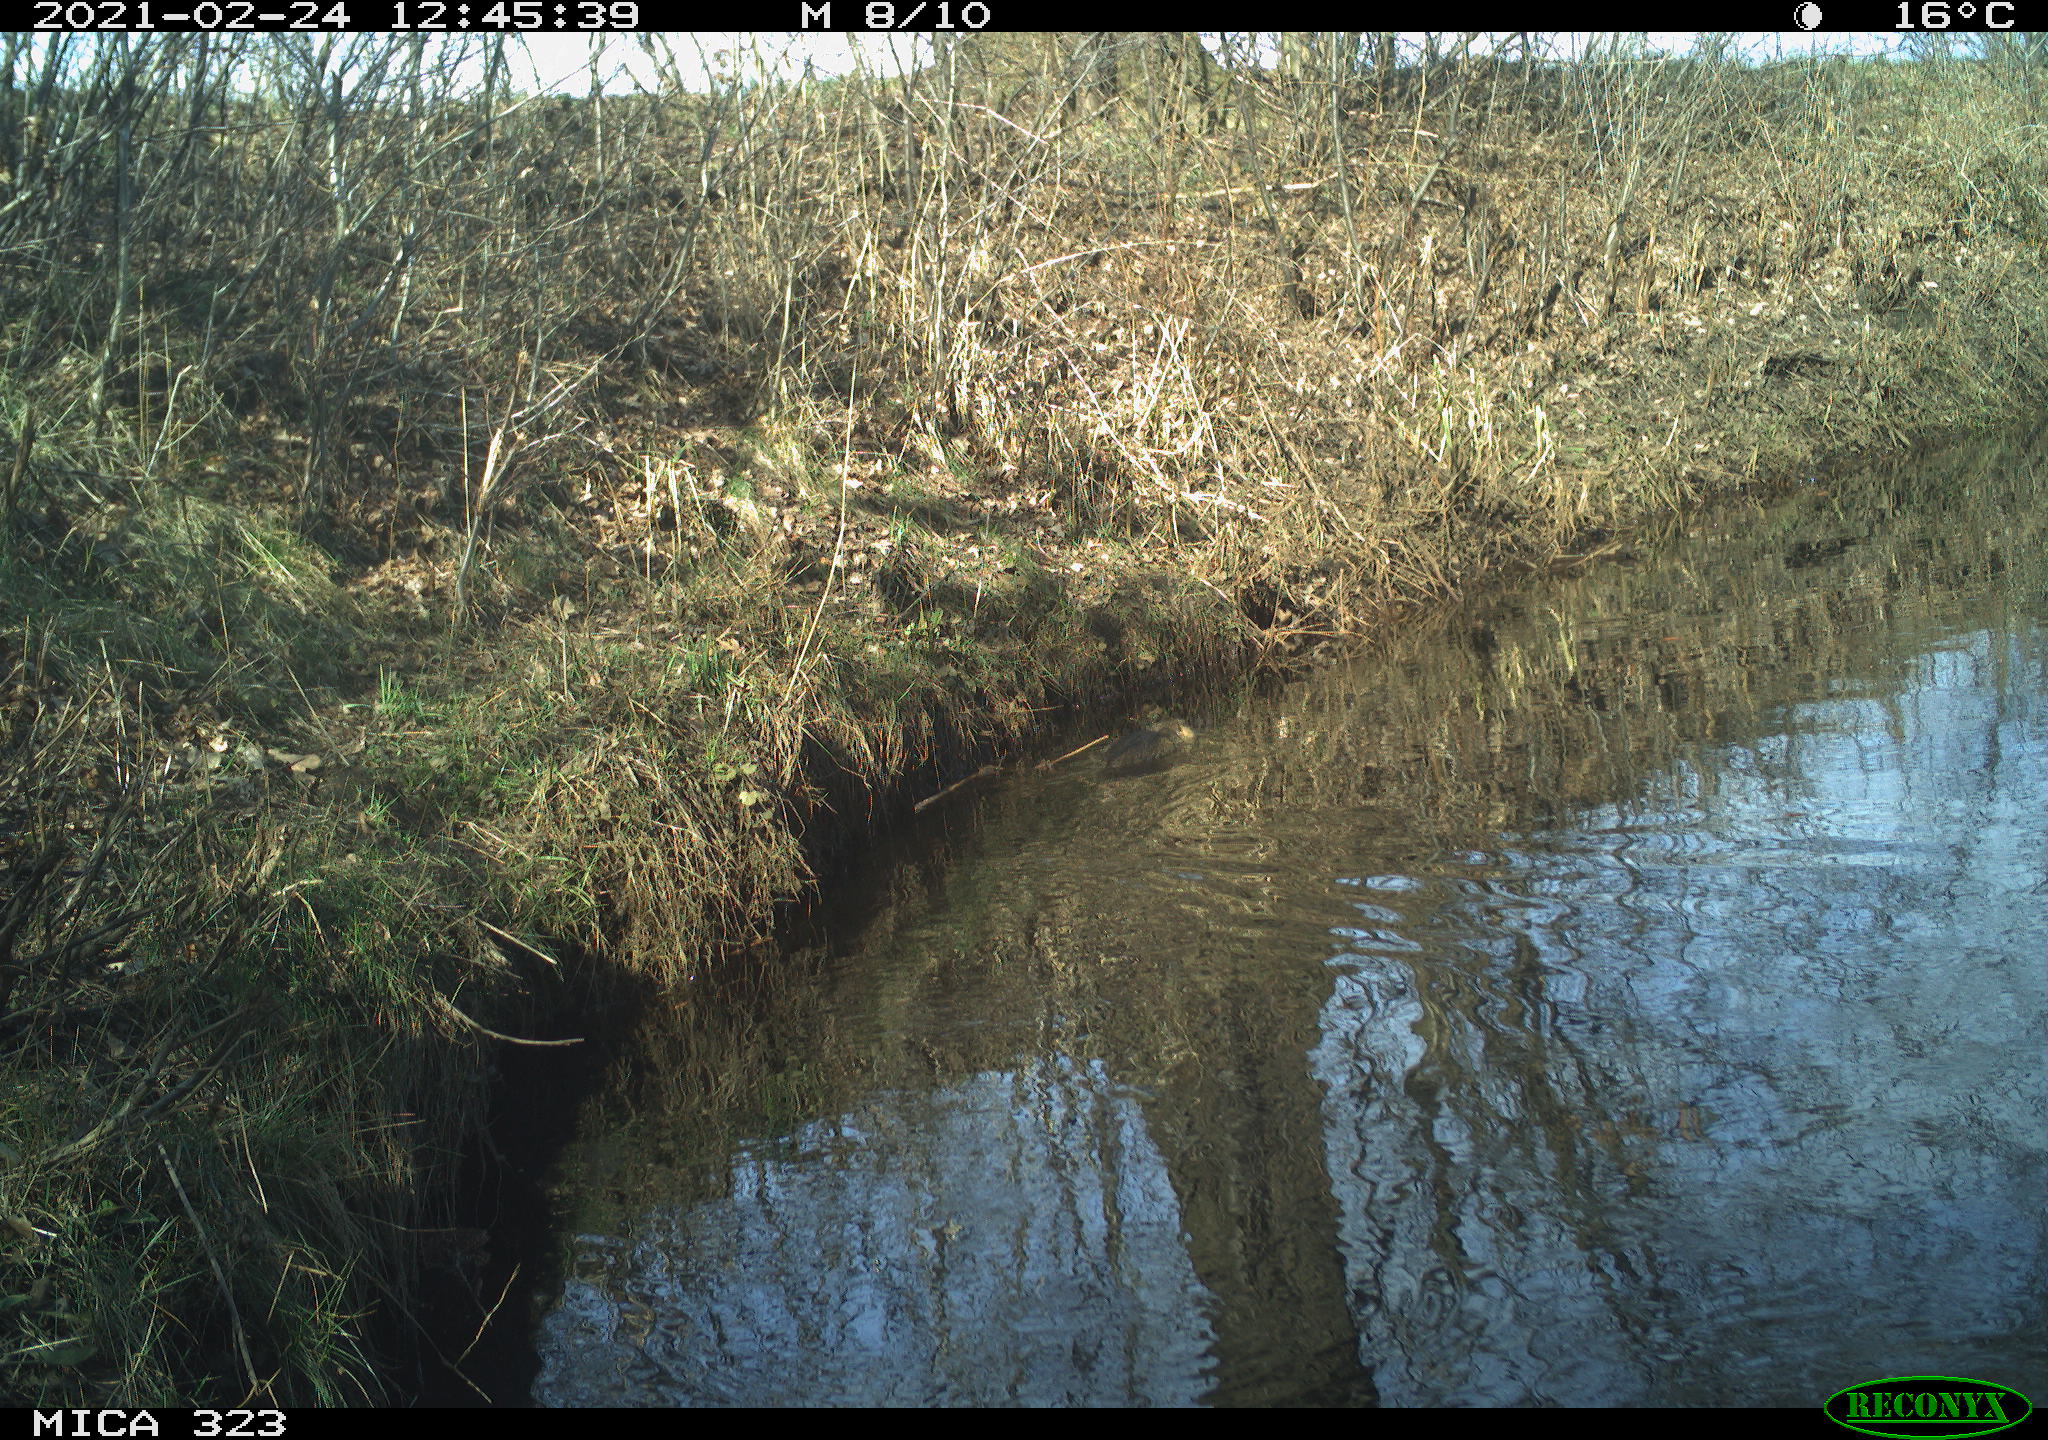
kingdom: Animalia
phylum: Chordata
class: Mammalia
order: Rodentia
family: Myocastoridae
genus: Myocastor
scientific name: Myocastor coypus
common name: Coypu
